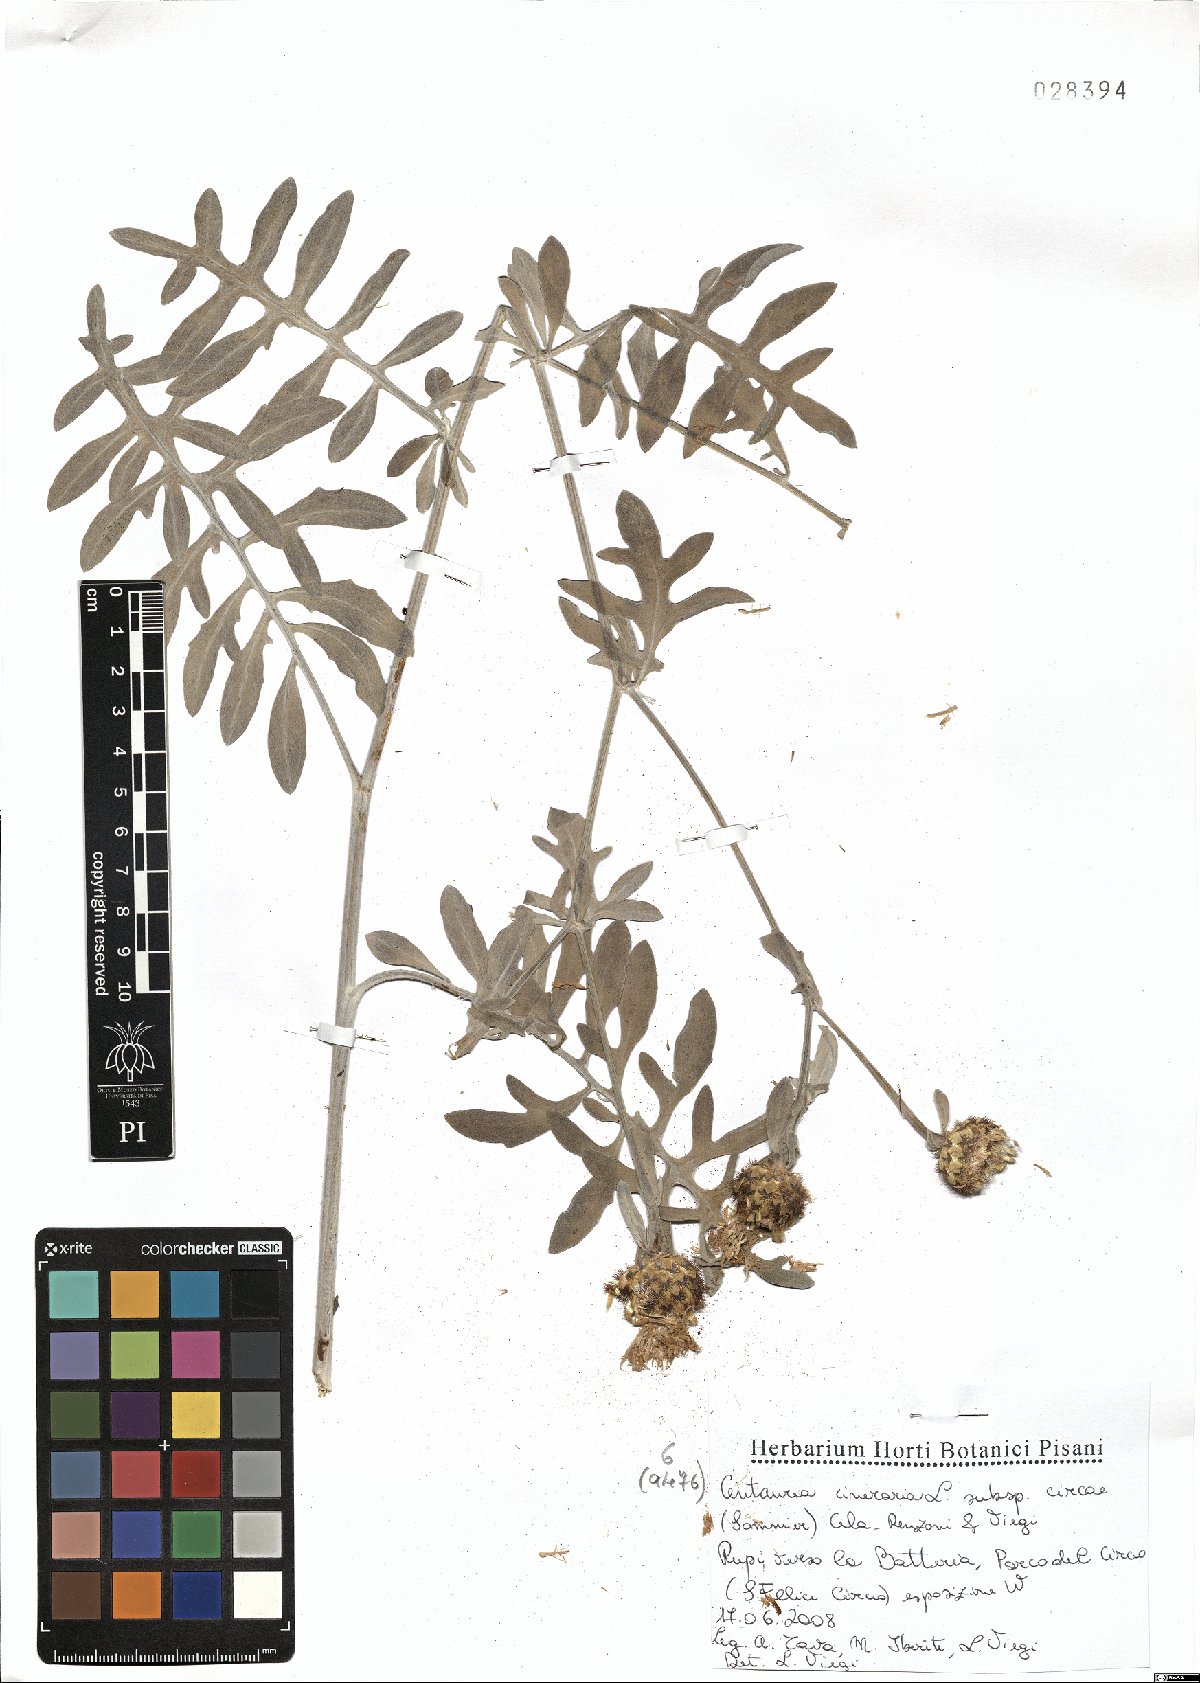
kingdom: Plantae
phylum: Tracheophyta
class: Magnoliopsida
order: Asterales
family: Asteraceae
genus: Centaurea
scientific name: Centaurea cineraria
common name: Dusty miller
